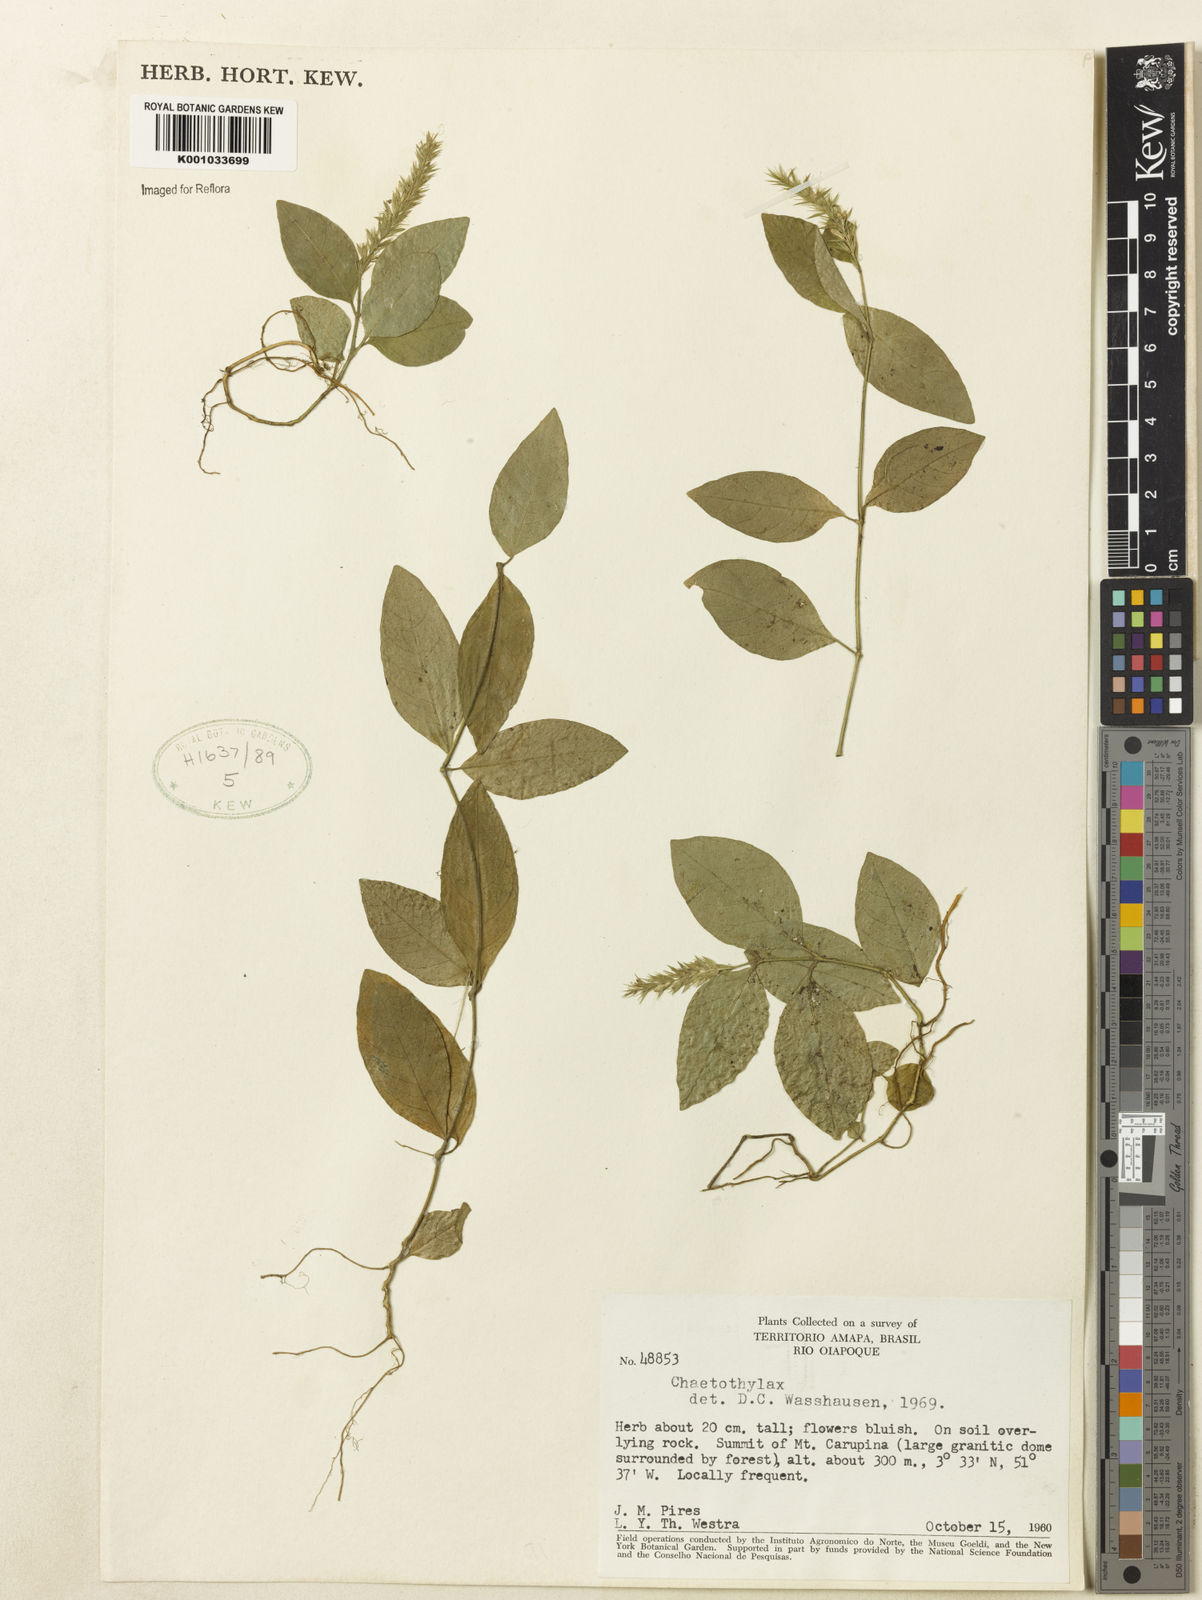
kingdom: Plantae
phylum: Tracheophyta
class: Magnoliopsida
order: Lamiales
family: Acanthaceae
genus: Justicia
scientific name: Justicia
